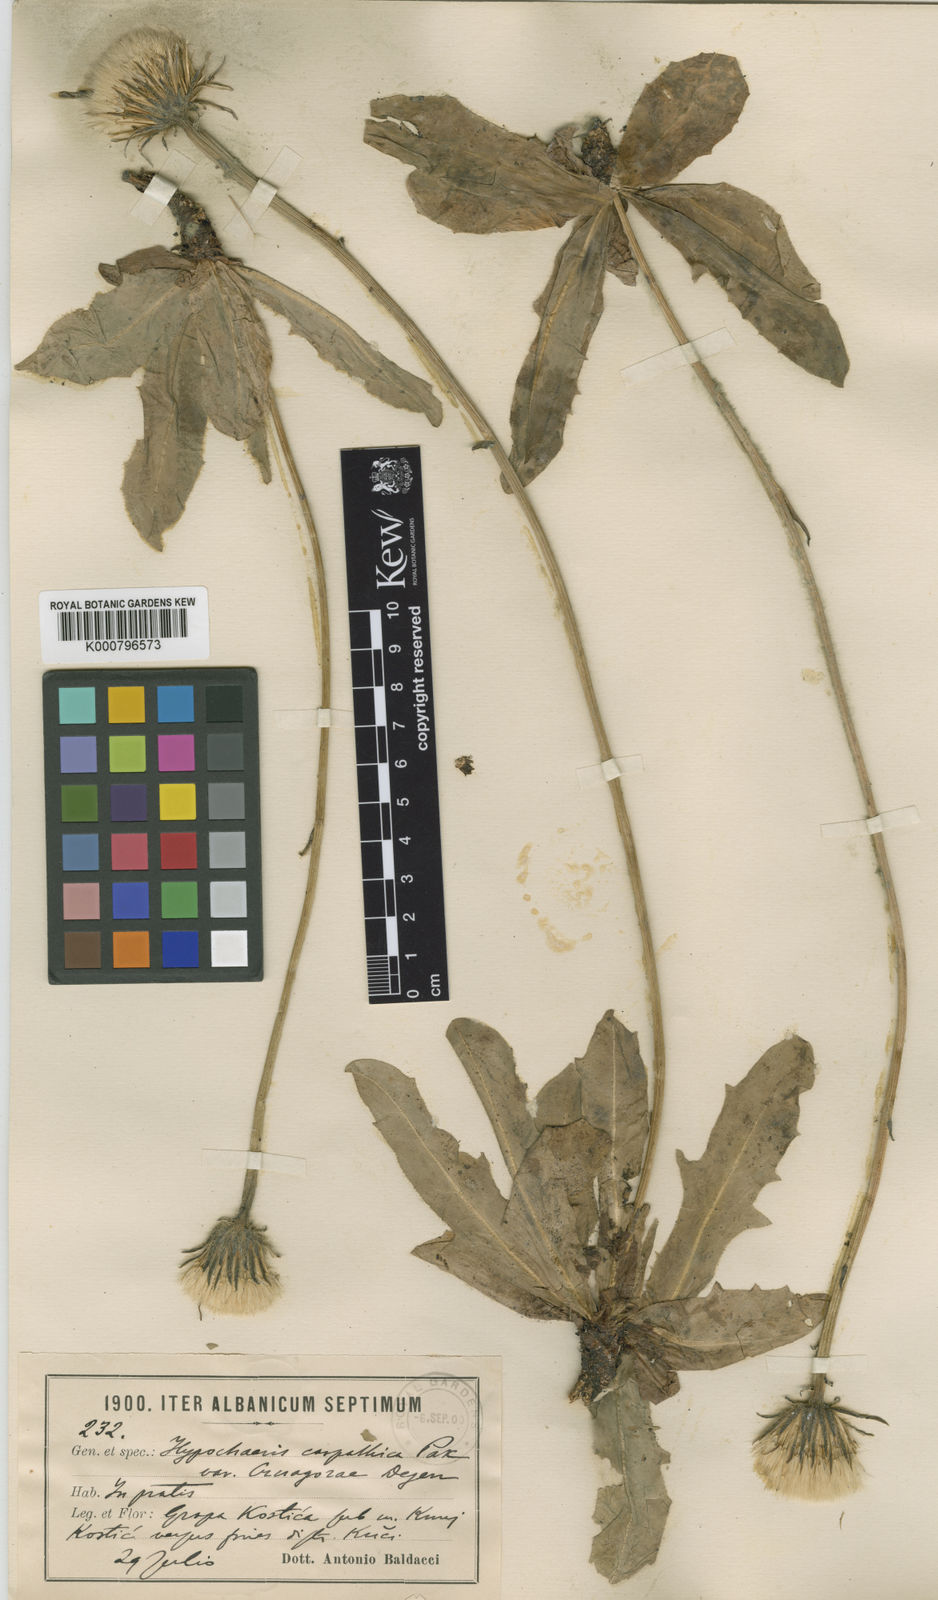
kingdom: Plantae
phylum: Tracheophyta
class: Magnoliopsida
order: Asterales
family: Asteraceae
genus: Trommsdorffia
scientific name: Trommsdorffia maculata
